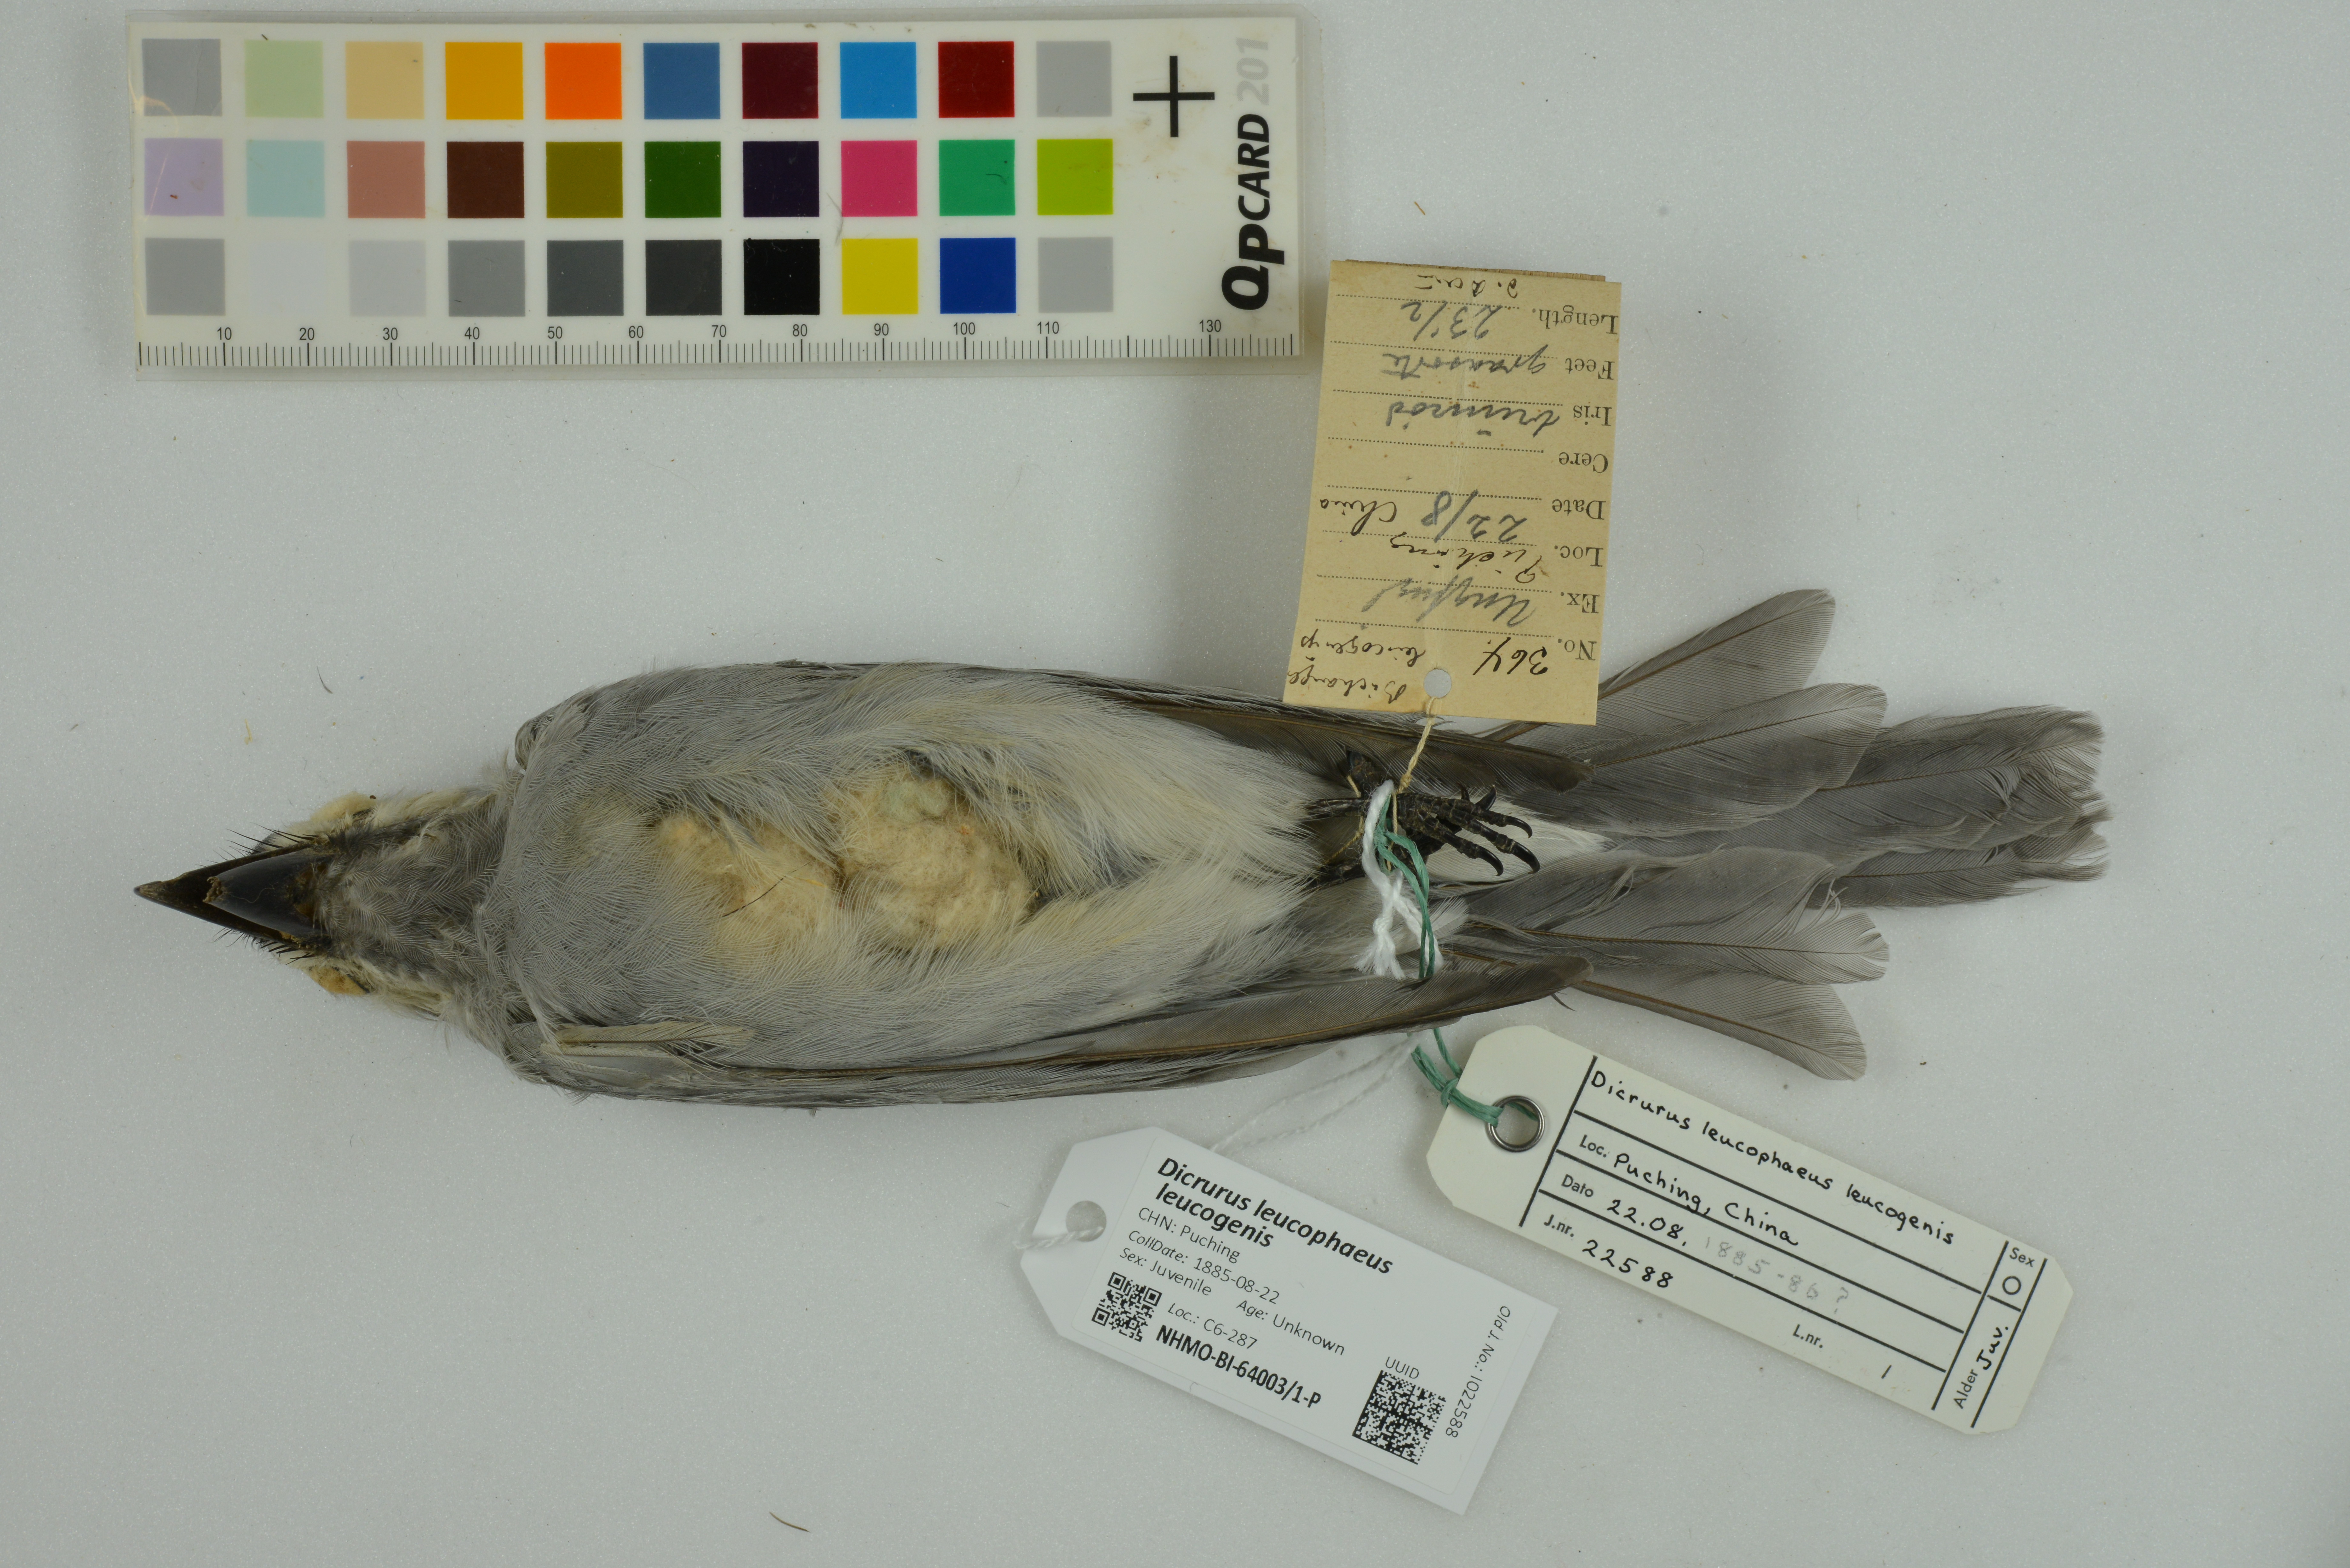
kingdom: Animalia
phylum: Chordata
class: Aves
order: Passeriformes
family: Dicruridae
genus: Dicrurus
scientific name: Dicrurus leucophaeus
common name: Ashy drongo
